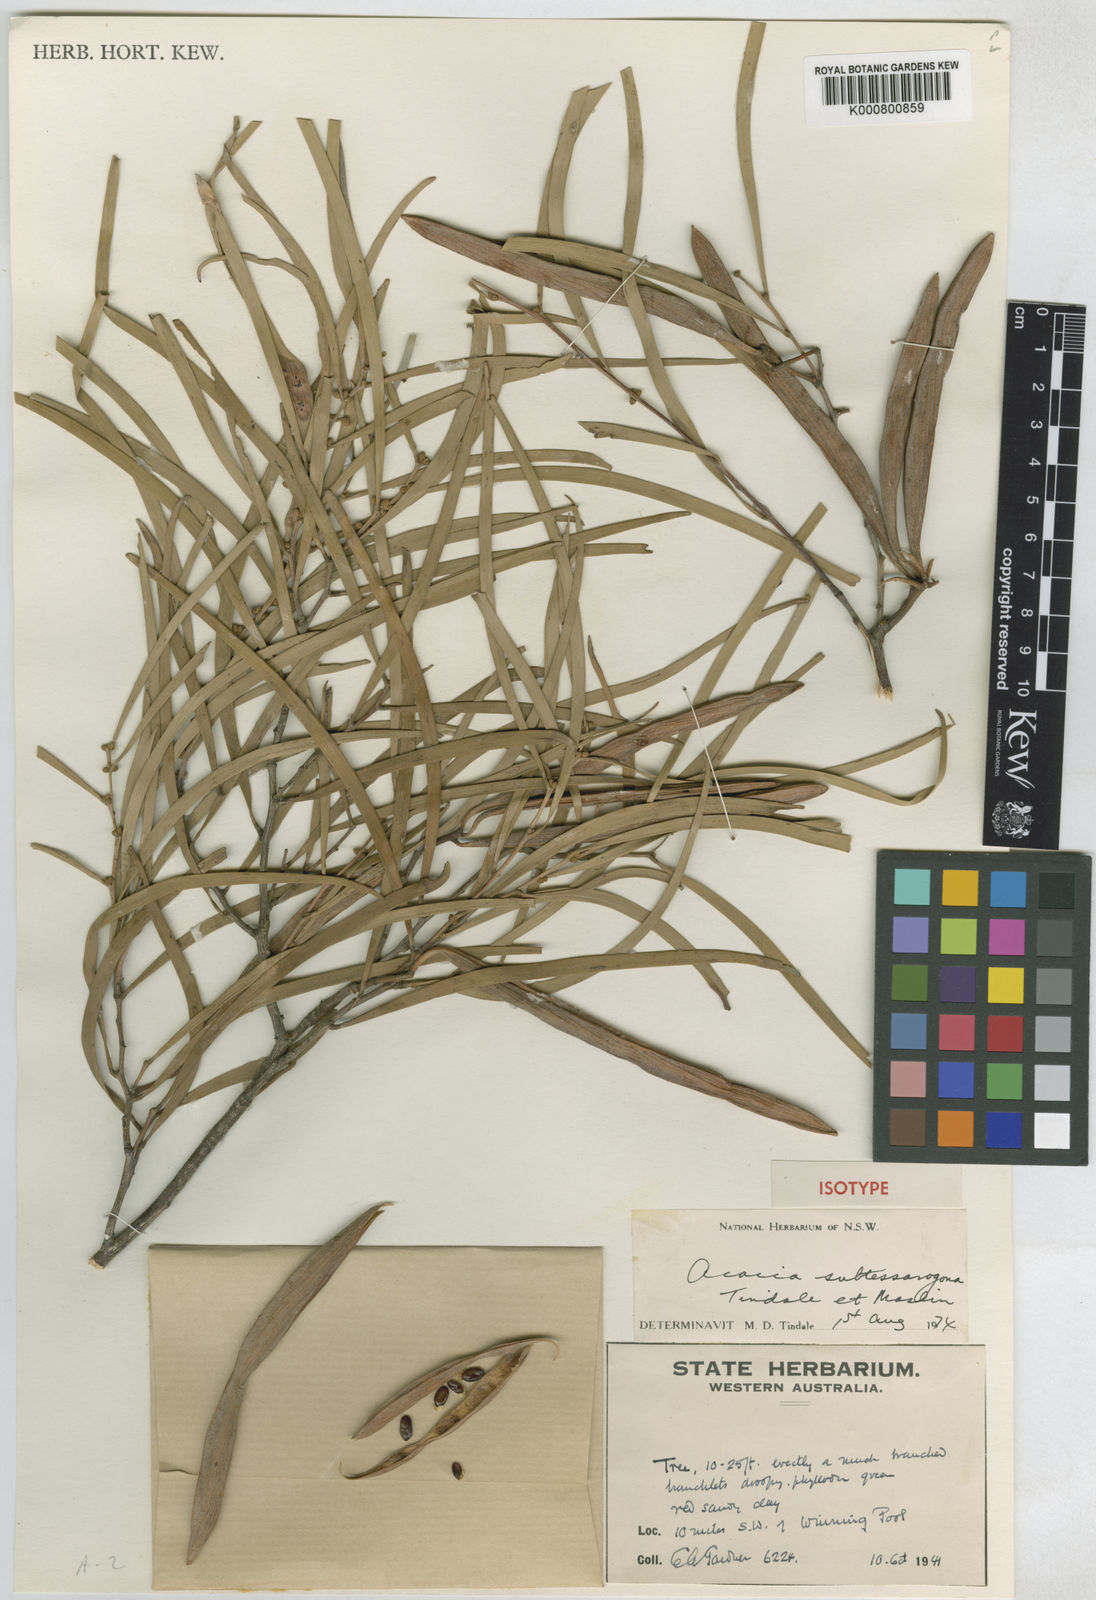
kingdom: Plantae
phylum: Tracheophyta
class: Magnoliopsida
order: Fabales
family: Fabaceae
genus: Acacia
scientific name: Acacia subtessarogona
